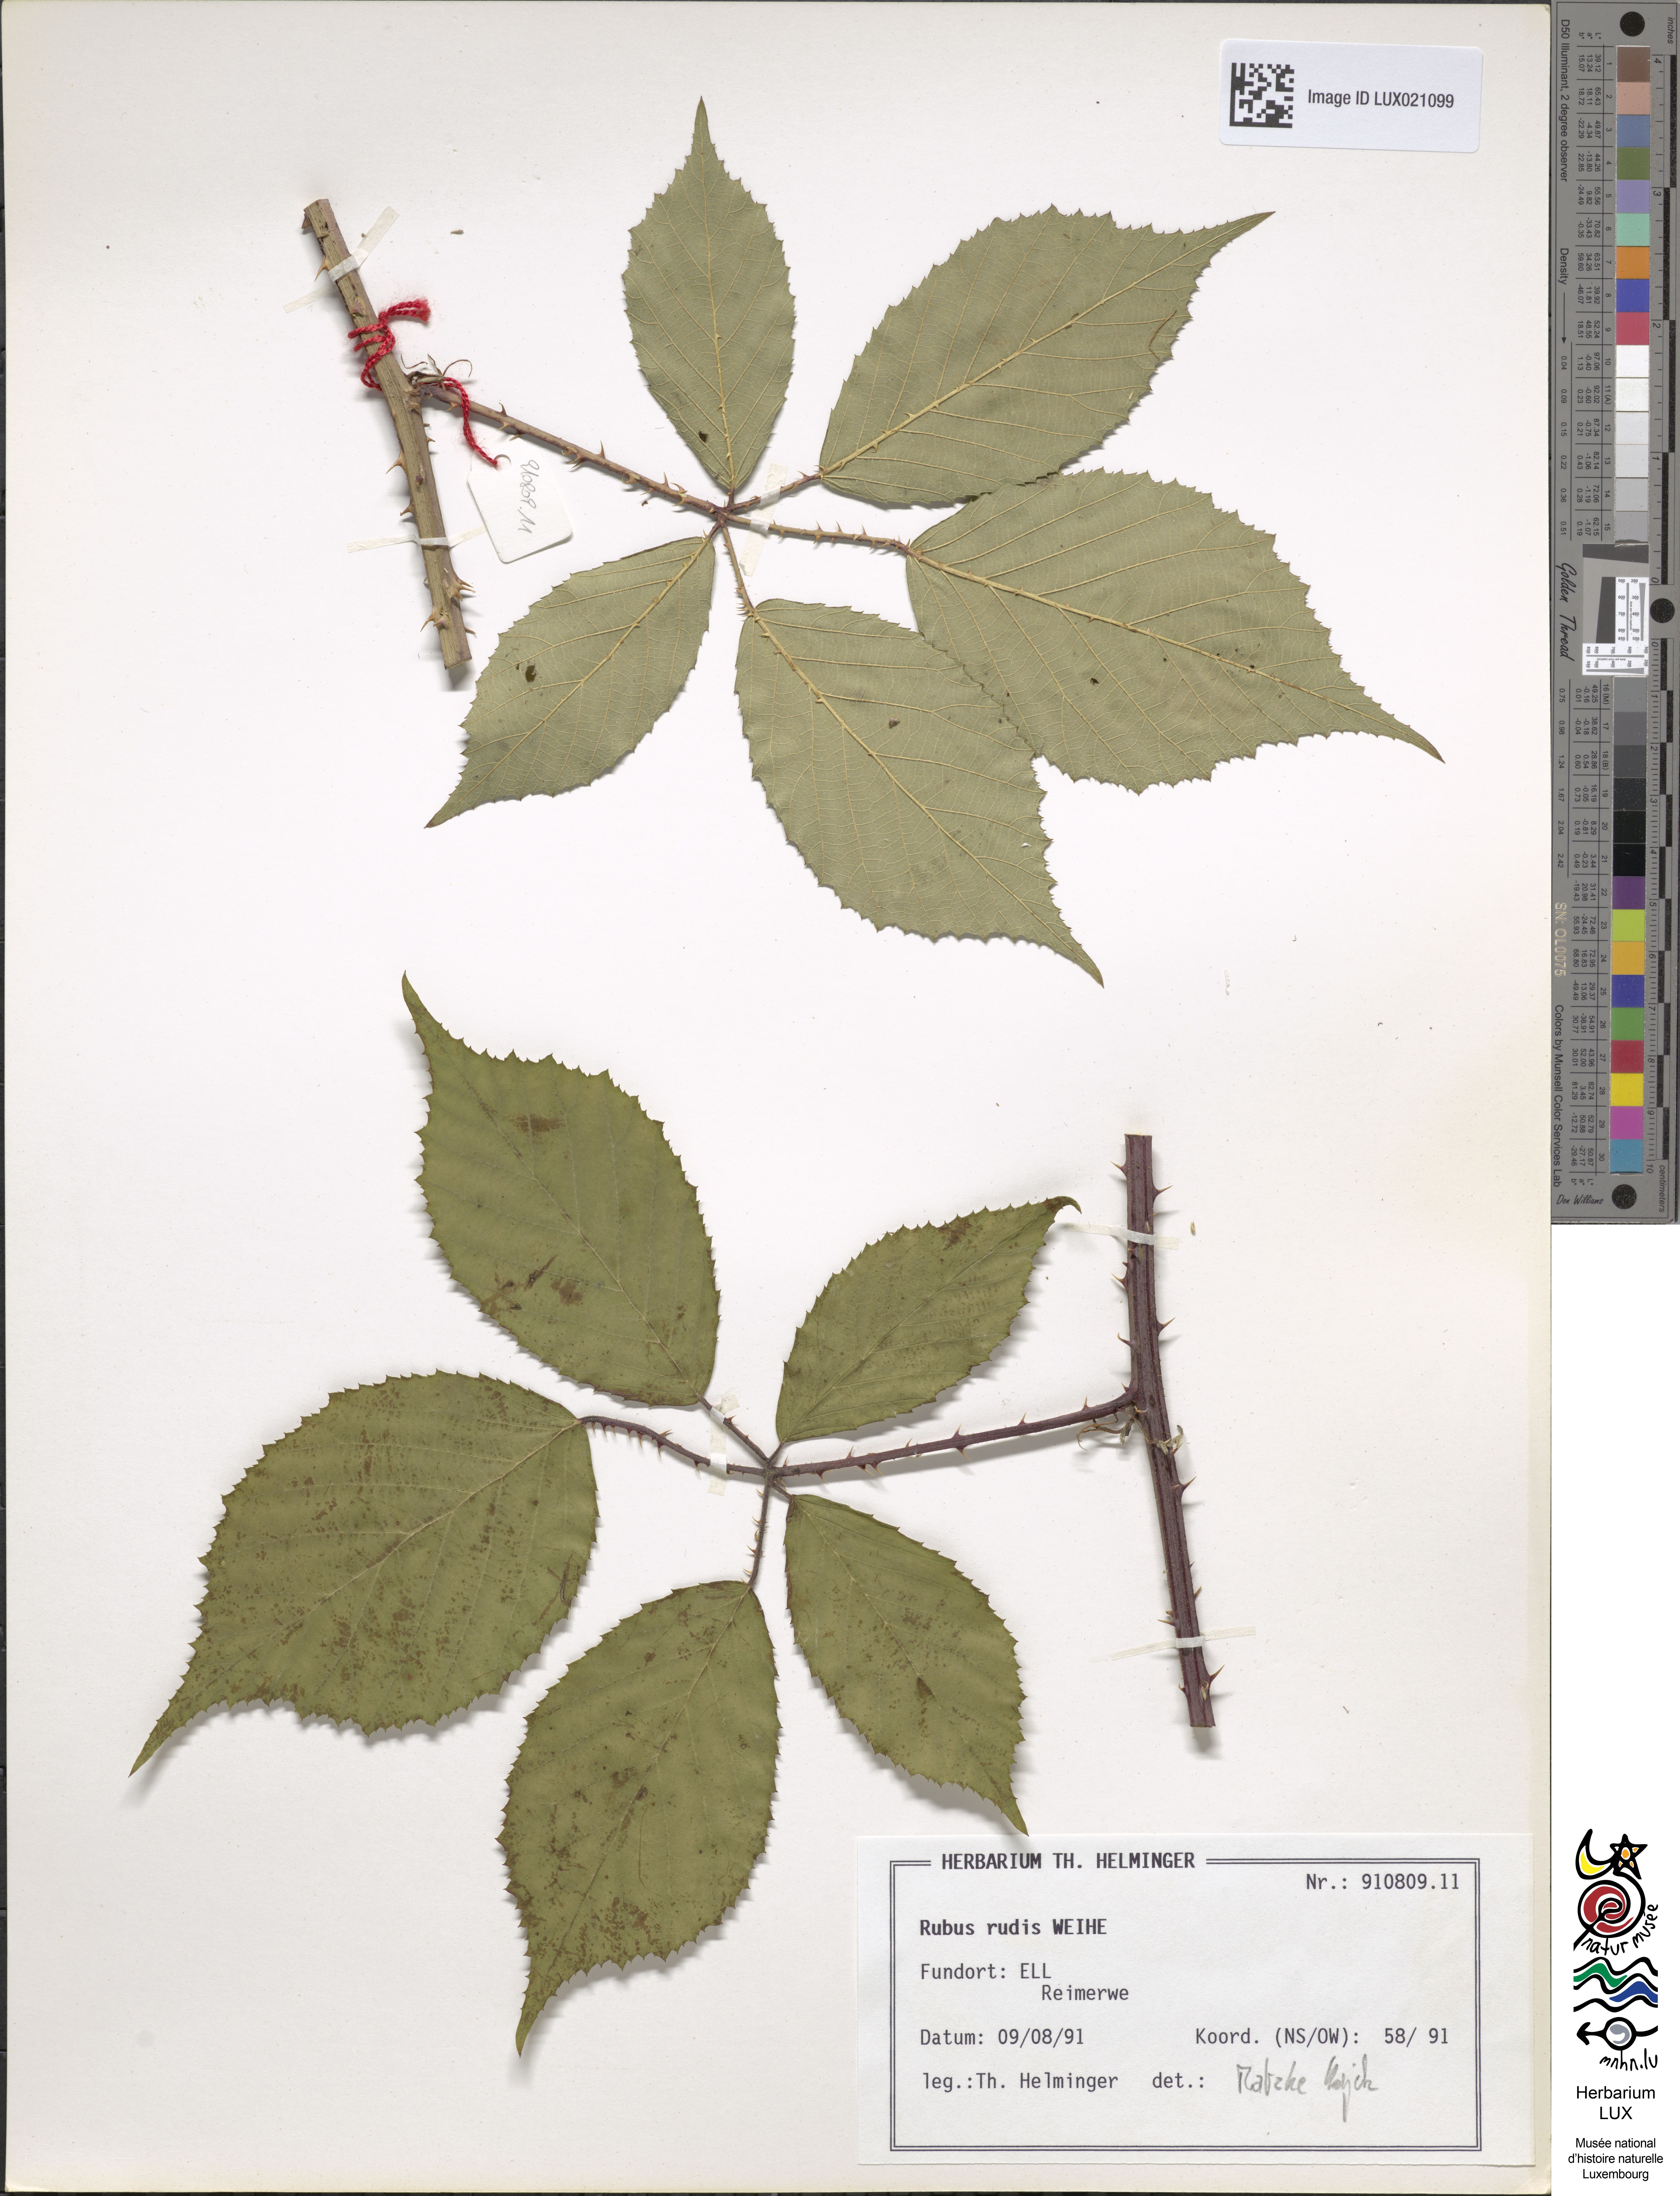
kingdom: Plantae
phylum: Tracheophyta
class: Magnoliopsida
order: Rosales
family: Rosaceae
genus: Rubus
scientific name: Rubus rudis
